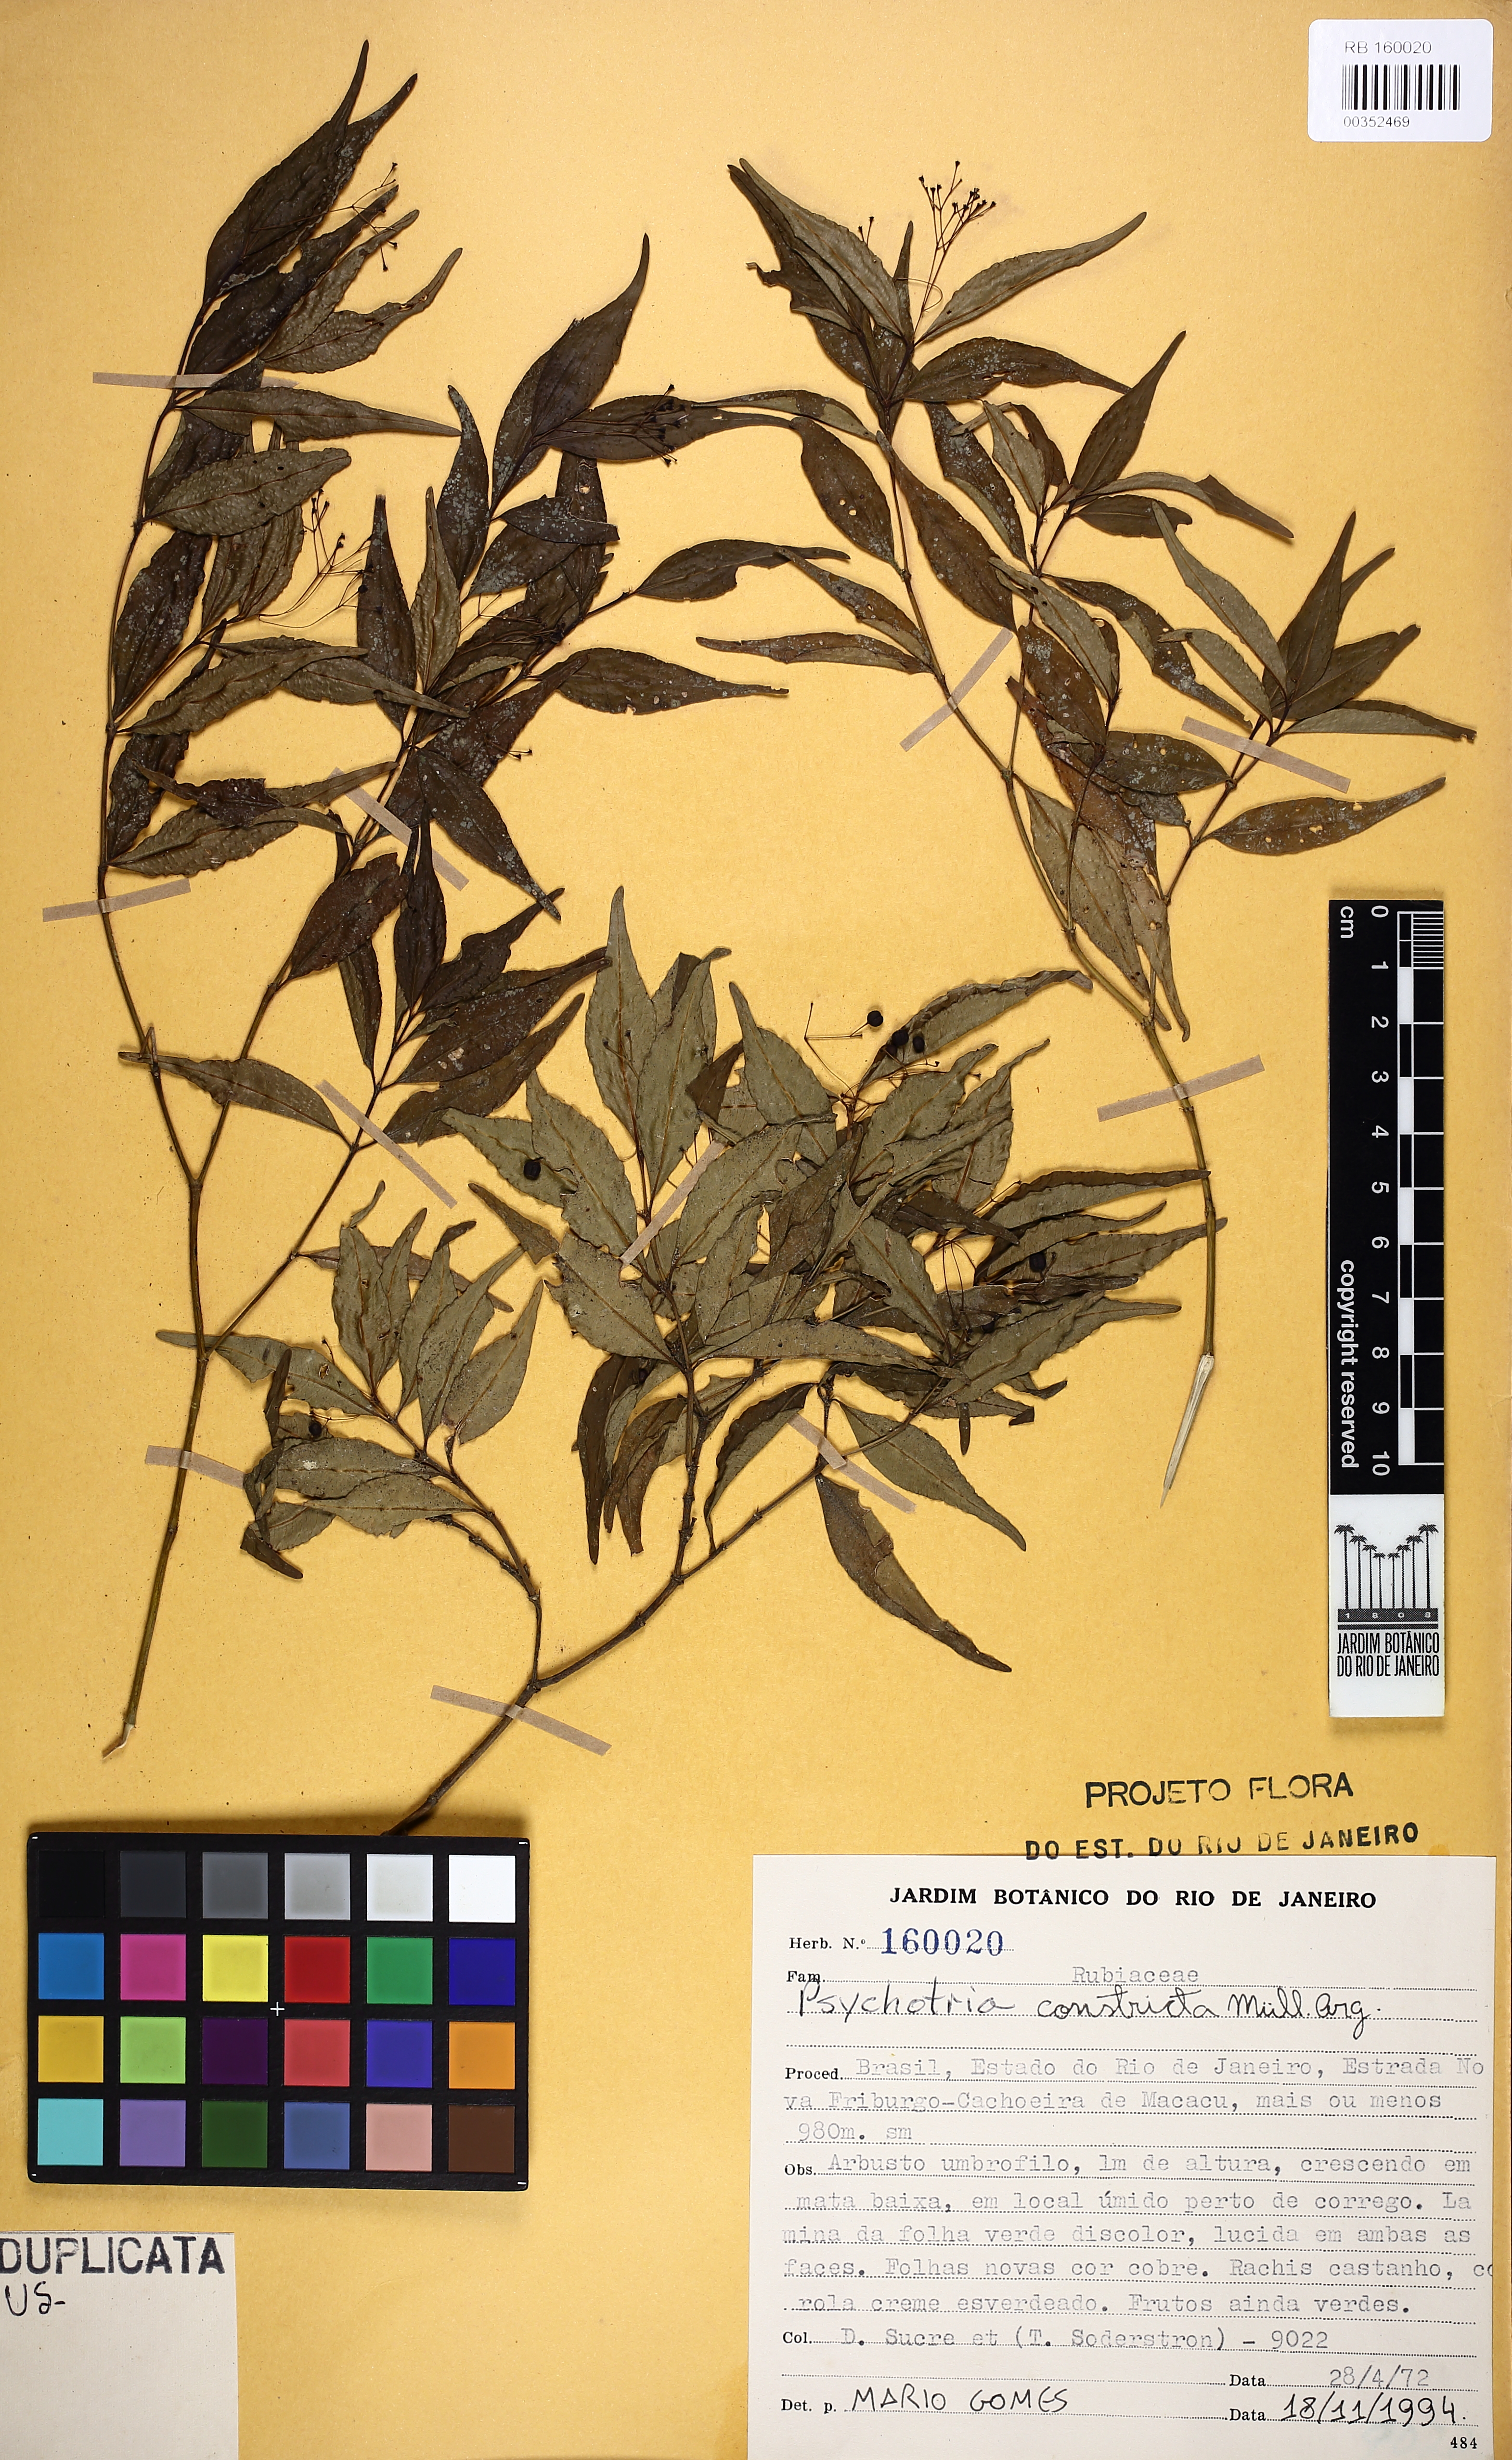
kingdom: Plantae
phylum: Tracheophyta
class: Magnoliopsida
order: Gentianales
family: Rubiaceae
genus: Psychotria
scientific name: Psychotria leiocarpa
